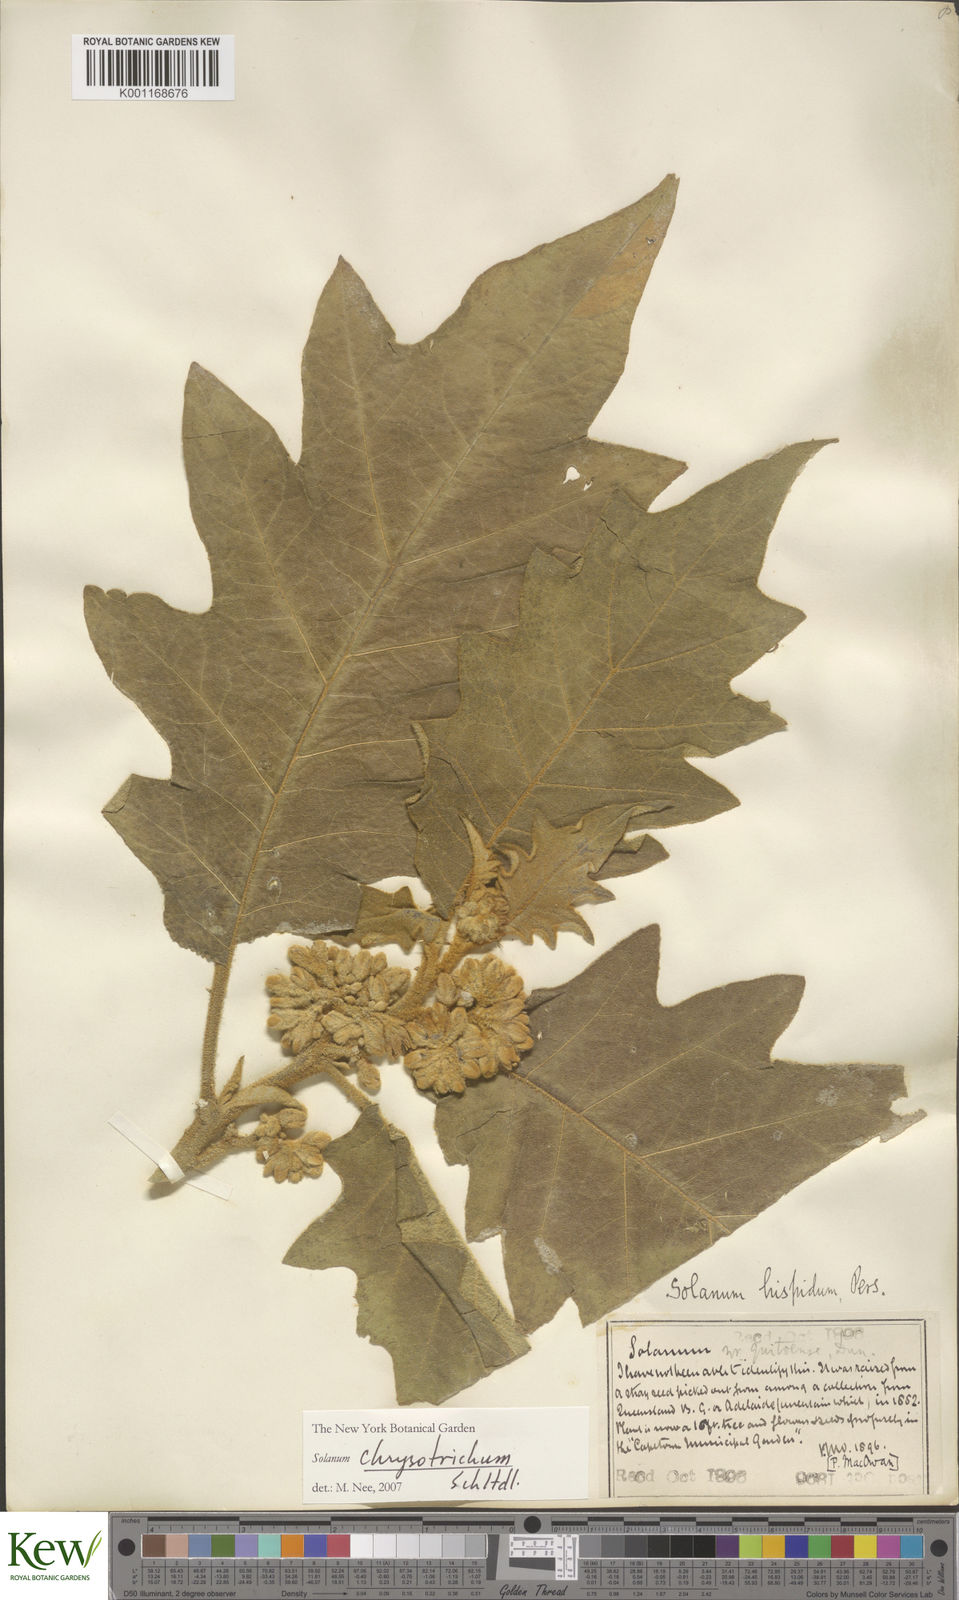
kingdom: Plantae
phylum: Tracheophyta
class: Magnoliopsida
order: Solanales
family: Solanaceae
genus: Solanum
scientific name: Solanum chrysotrichum
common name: Nightshade
